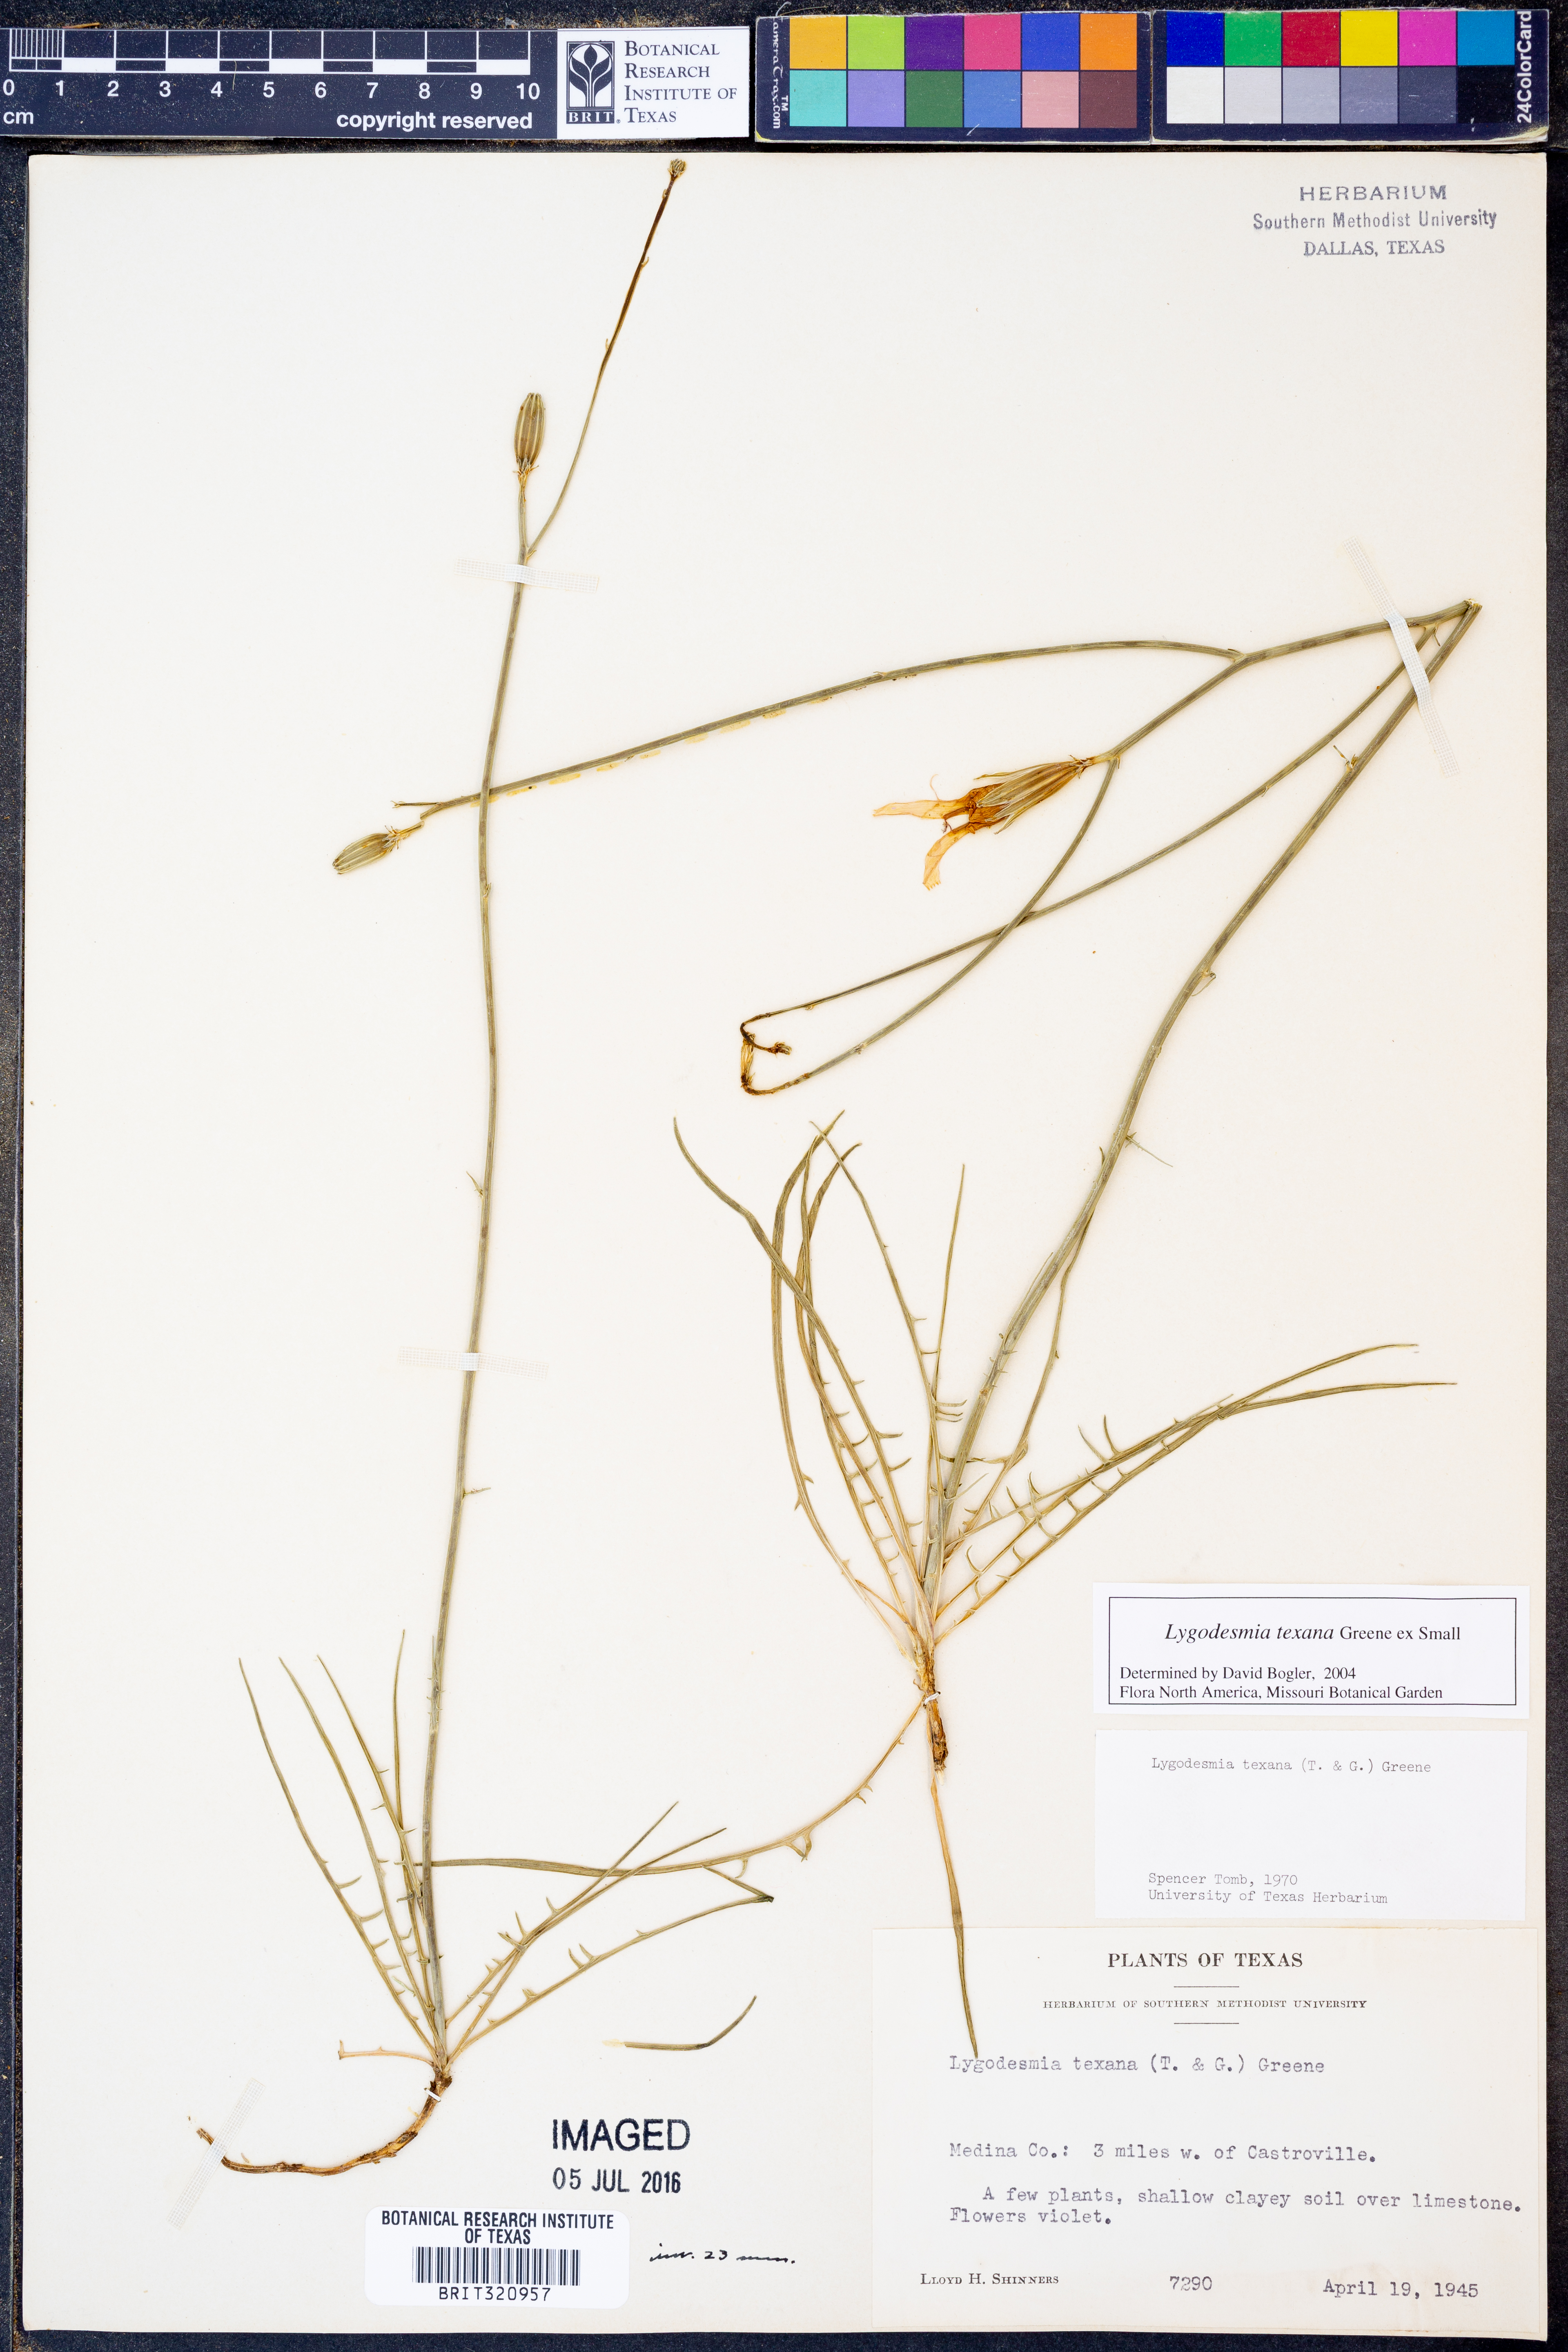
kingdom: Plantae
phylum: Tracheophyta
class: Magnoliopsida
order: Asterales
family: Asteraceae
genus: Lygodesmia
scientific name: Lygodesmia texana
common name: Texas skeleton-plant
